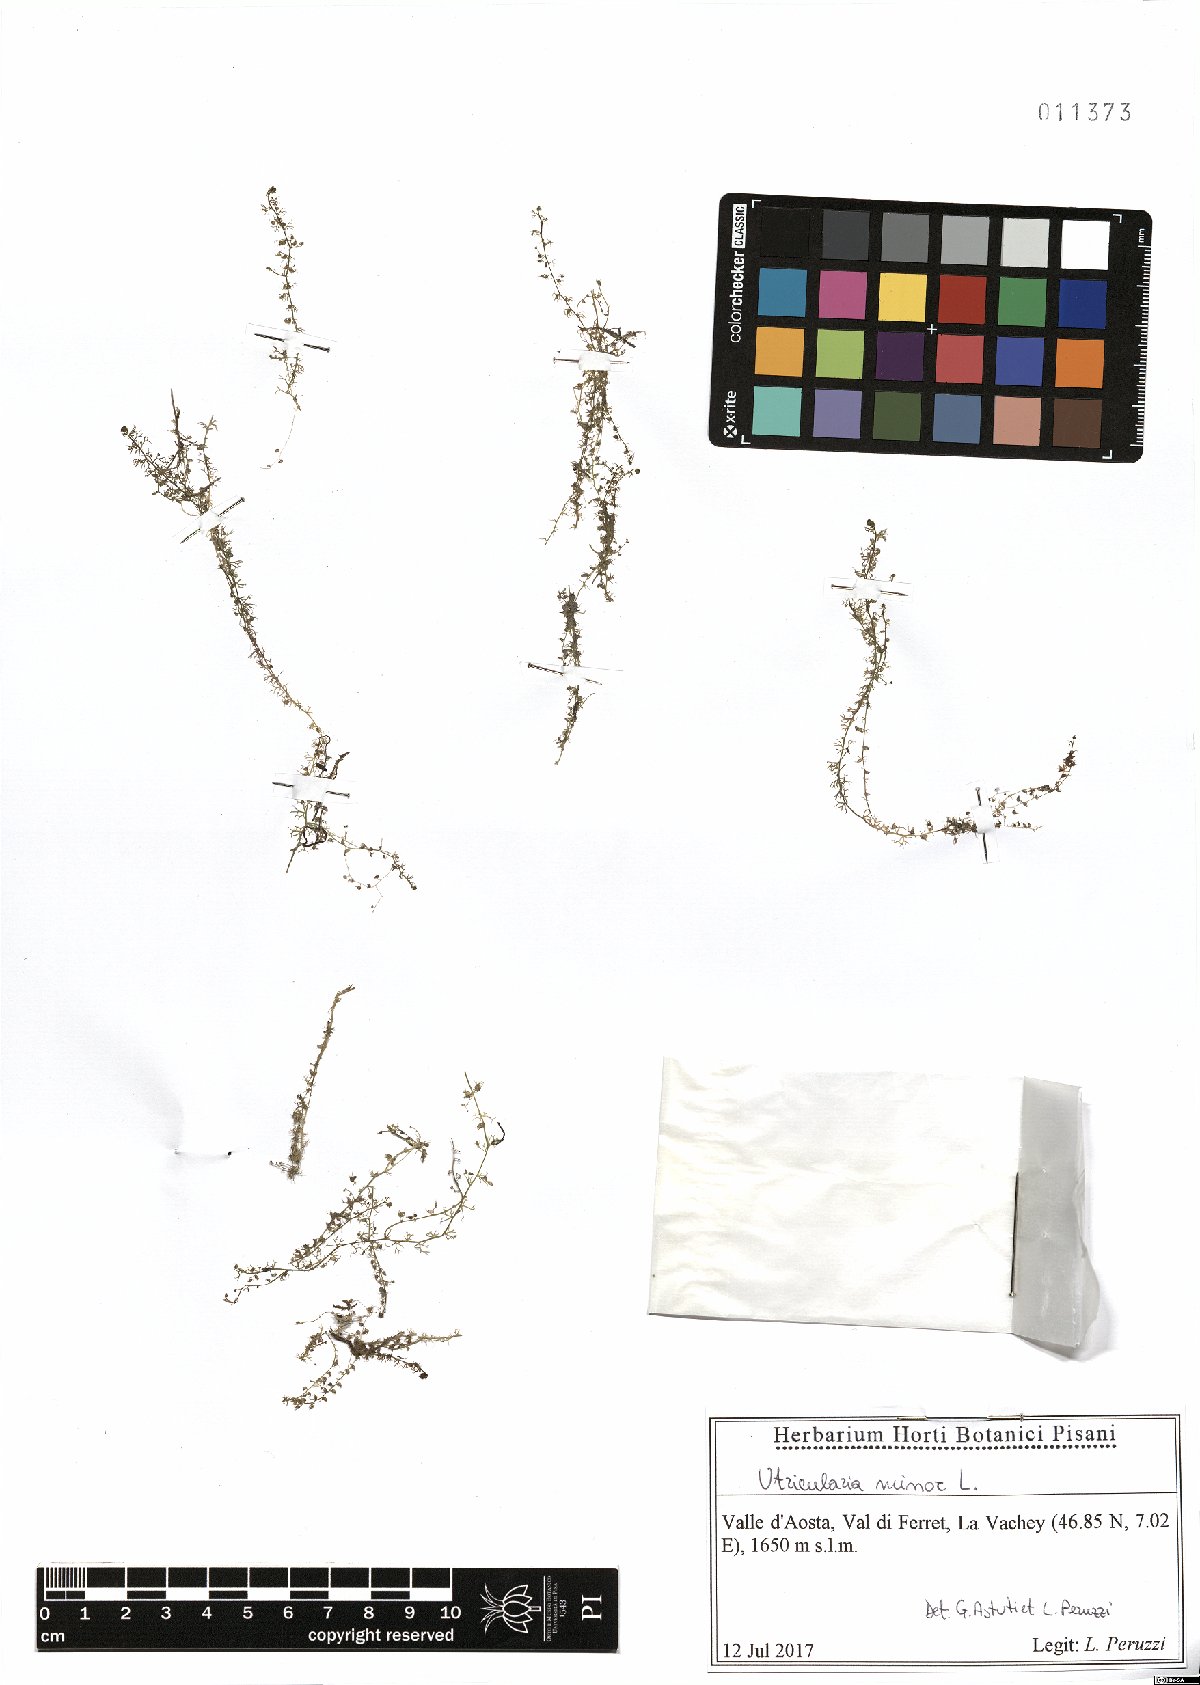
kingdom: Plantae
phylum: Tracheophyta
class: Magnoliopsida
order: Lamiales
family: Lentibulariaceae
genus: Utricularia
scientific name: Utricularia minor
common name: Lesser bladderwort
